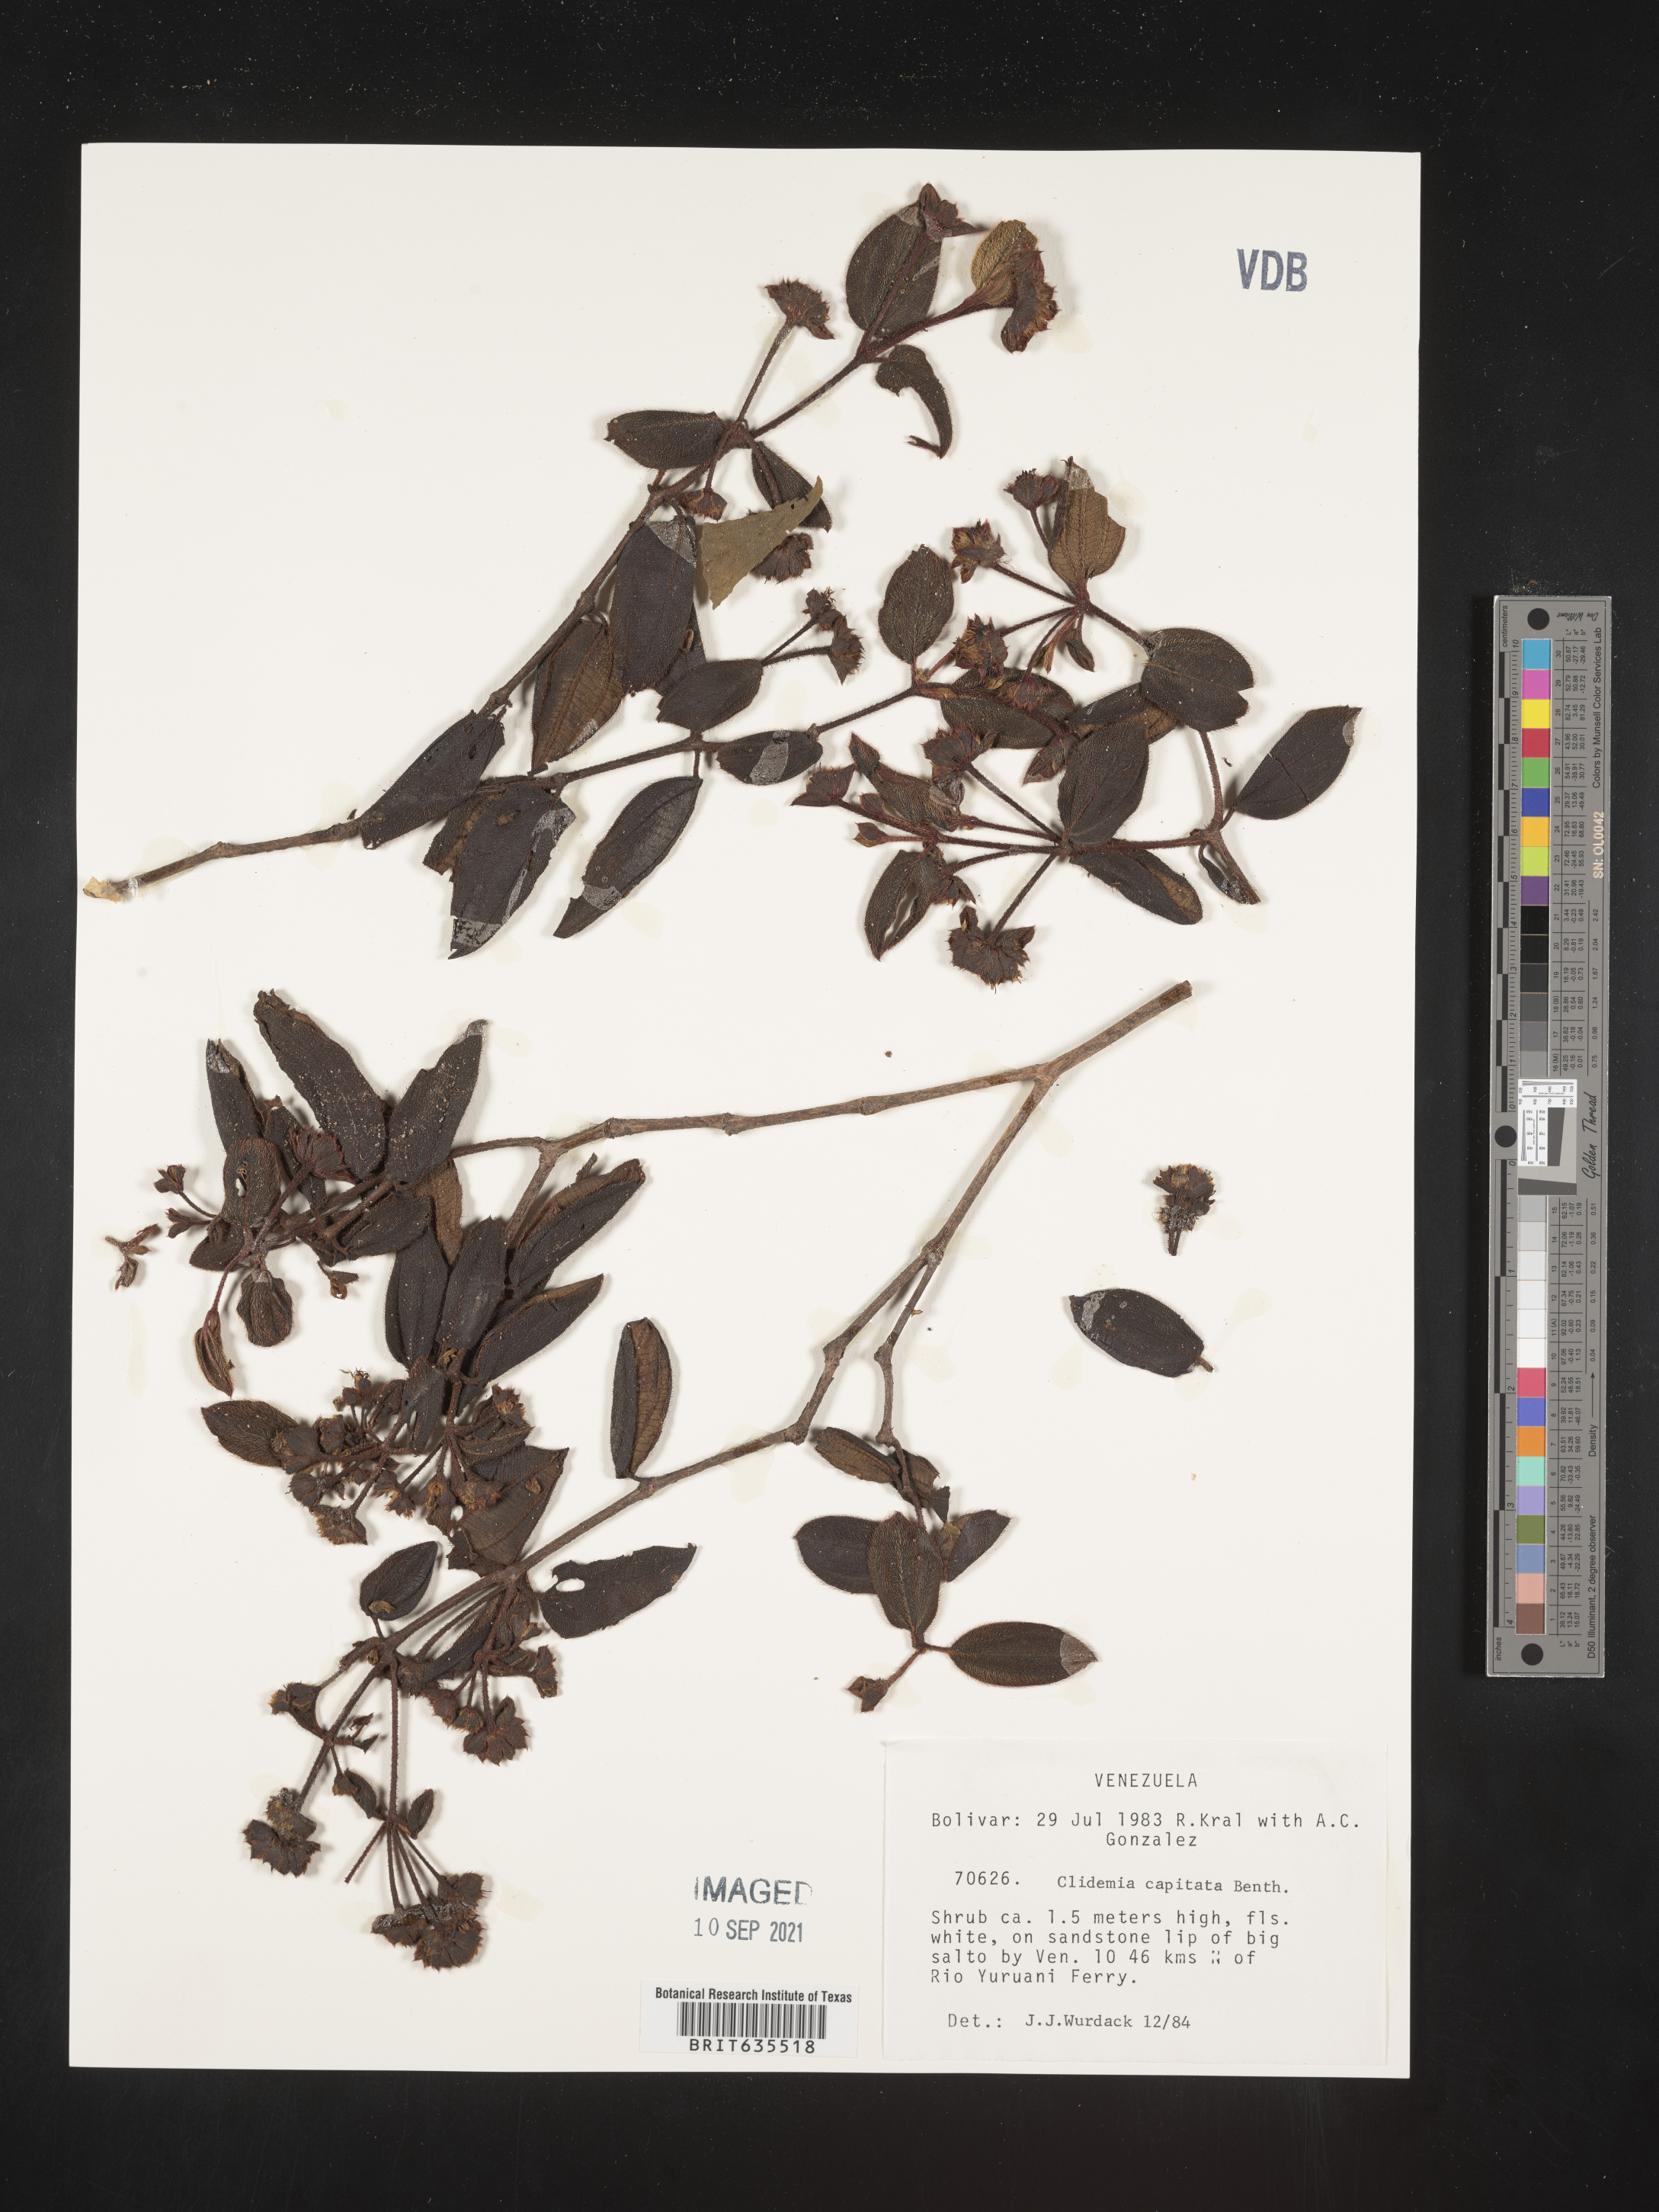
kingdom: Plantae
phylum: Tracheophyta
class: Magnoliopsida
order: Myrtales
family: Melastomataceae
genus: Miconia
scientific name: Miconia
